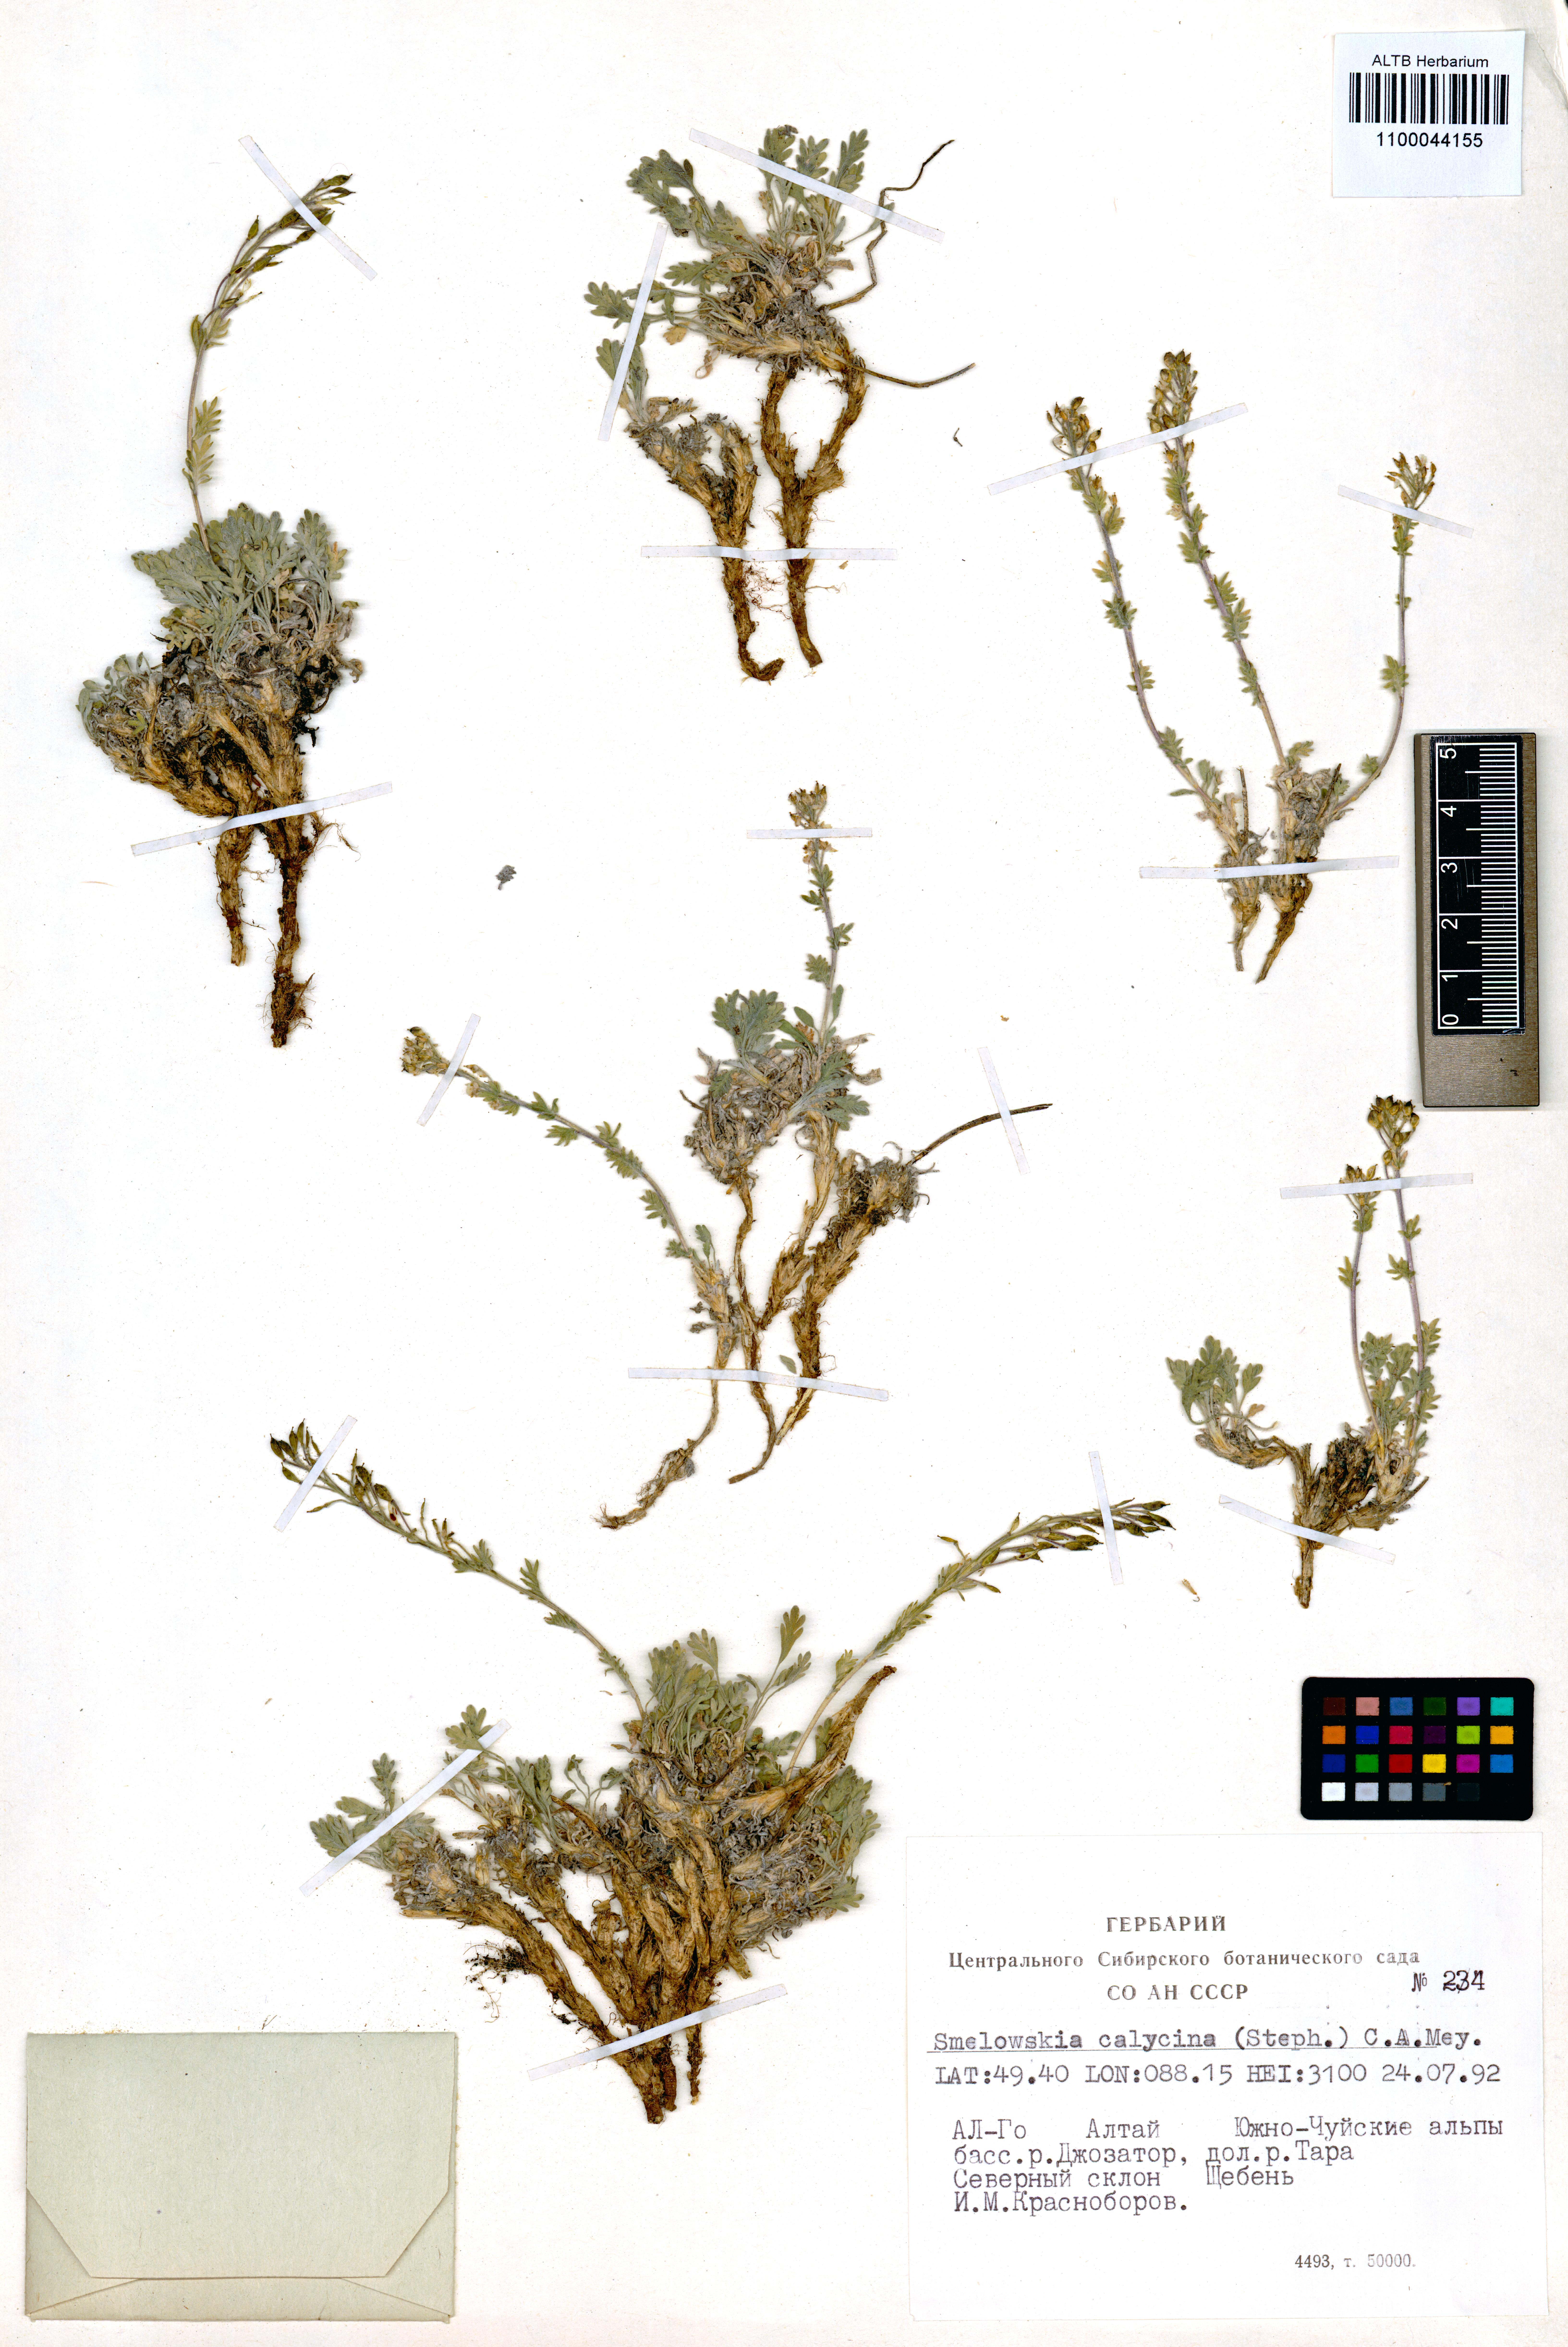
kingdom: Plantae
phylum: Tracheophyta
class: Magnoliopsida
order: Brassicales
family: Brassicaceae
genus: Smelowskia
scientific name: Smelowskia calycina
